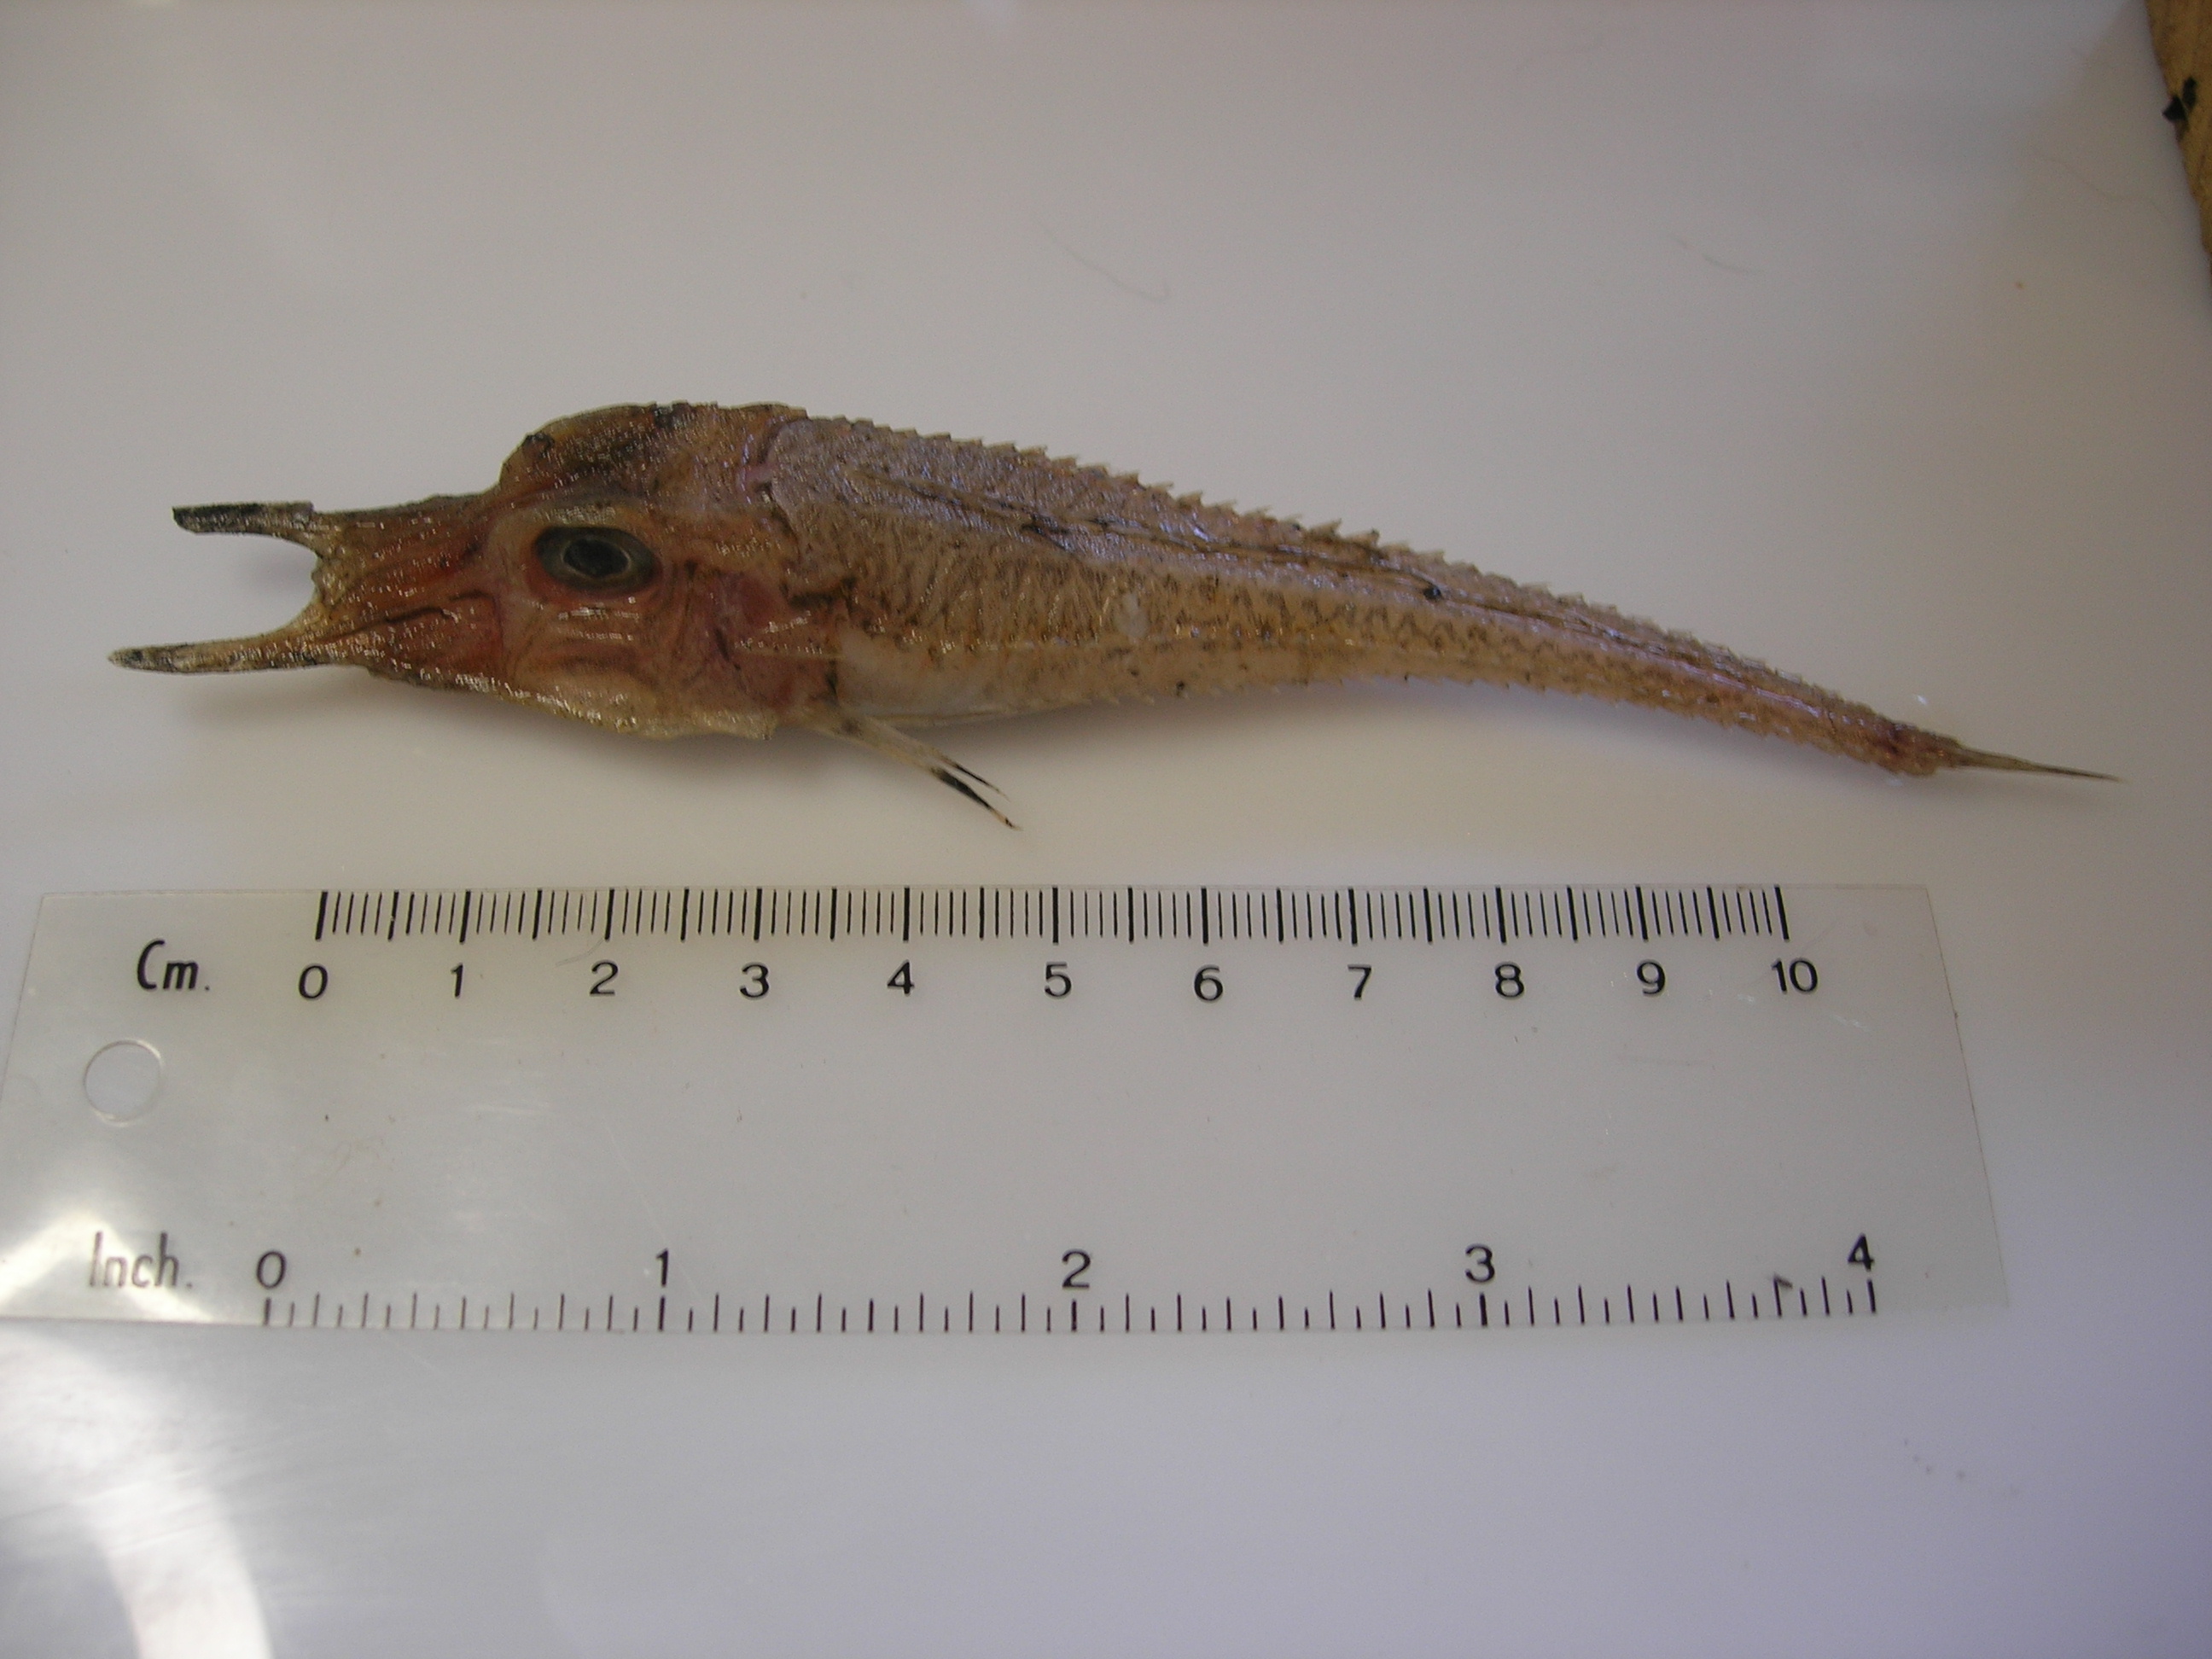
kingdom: Animalia
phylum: Chordata
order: Scorpaeniformes
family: Peristediidae
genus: Peristedion
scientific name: Peristedion weberi
